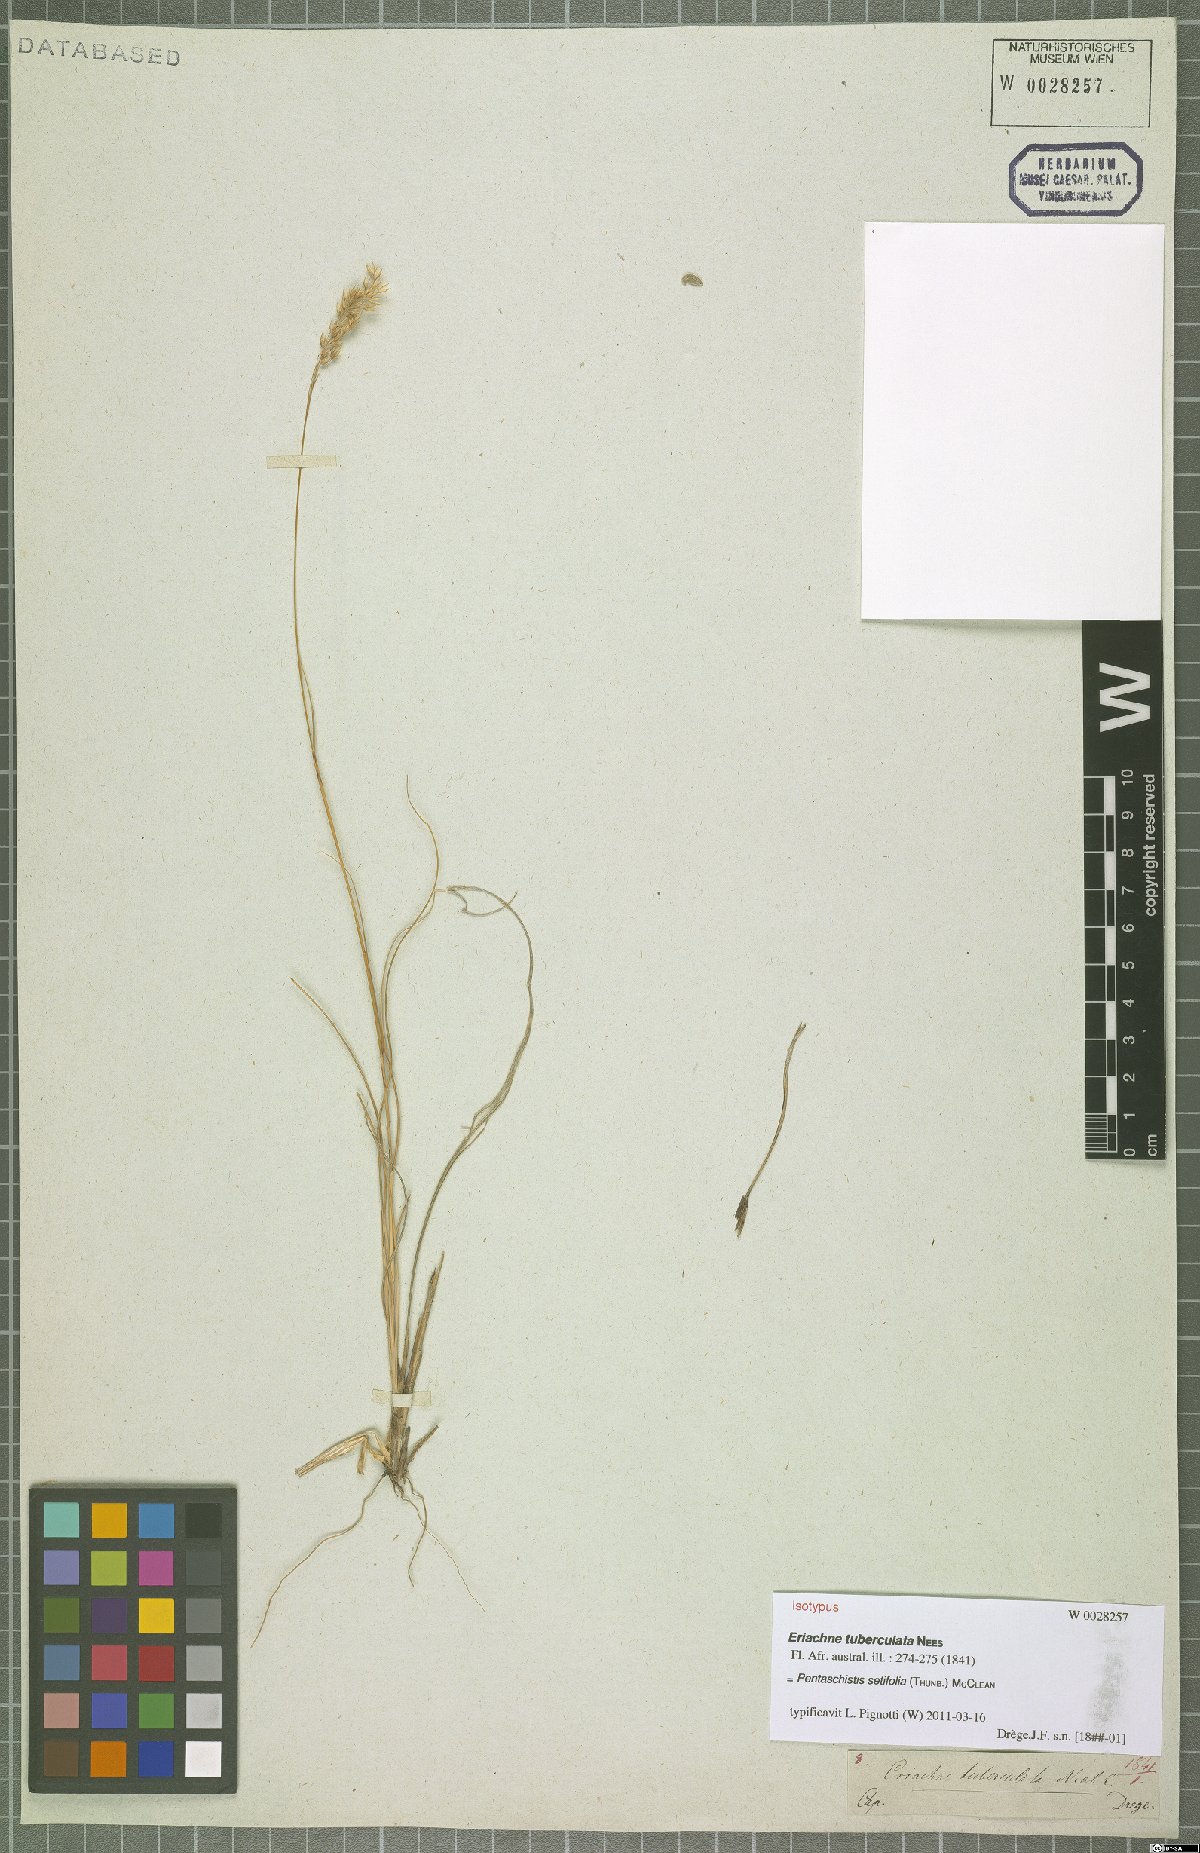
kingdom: Plantae
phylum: Tracheophyta
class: Liliopsida
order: Poales
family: Poaceae
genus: Pentameris
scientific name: Pentameris setifolia
